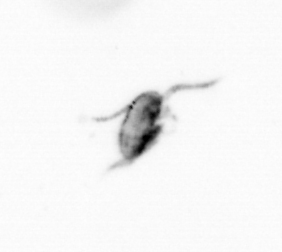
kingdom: Animalia
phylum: Arthropoda
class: Copepoda
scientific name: Copepoda
